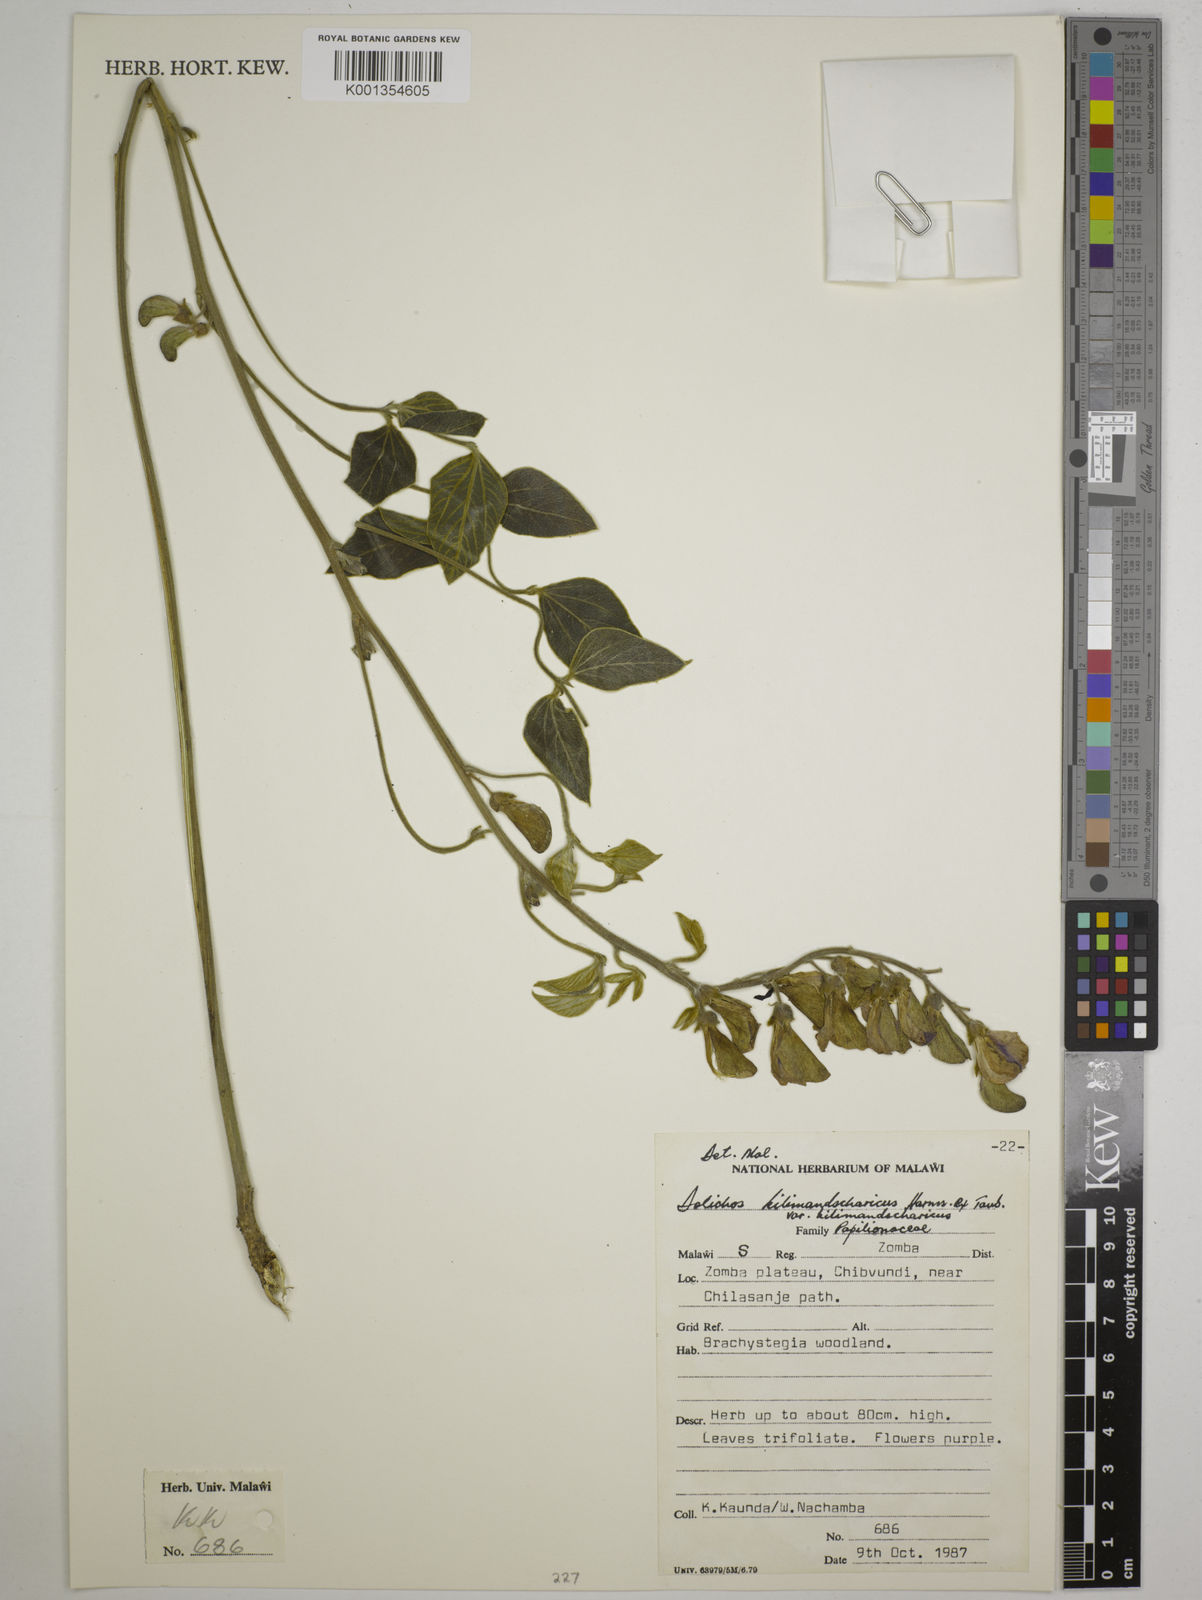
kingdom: Plantae
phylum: Tracheophyta
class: Magnoliopsida
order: Fabales
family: Fabaceae
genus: Dolichos
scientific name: Dolichos
